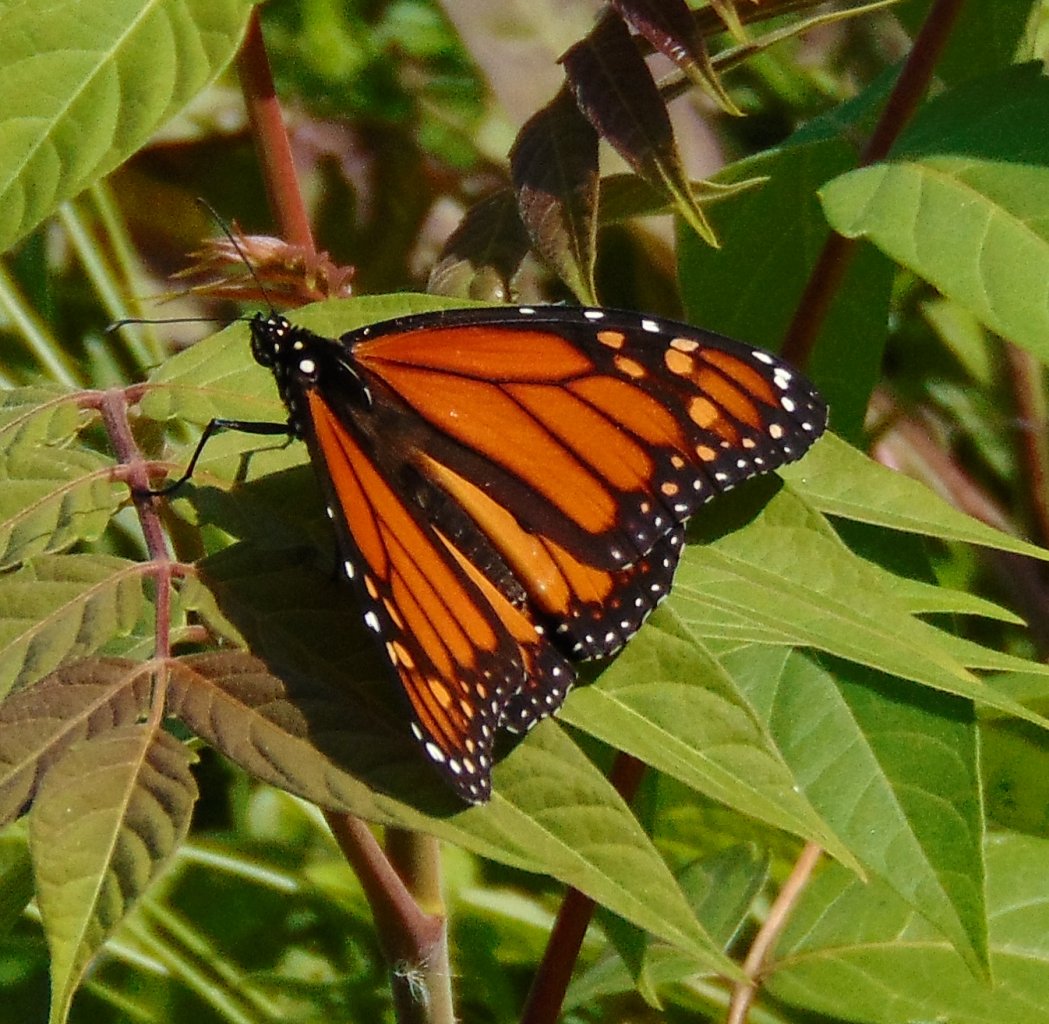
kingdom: Animalia
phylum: Arthropoda
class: Insecta
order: Lepidoptera
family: Nymphalidae
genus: Danaus
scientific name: Danaus plexippus
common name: Monarch
